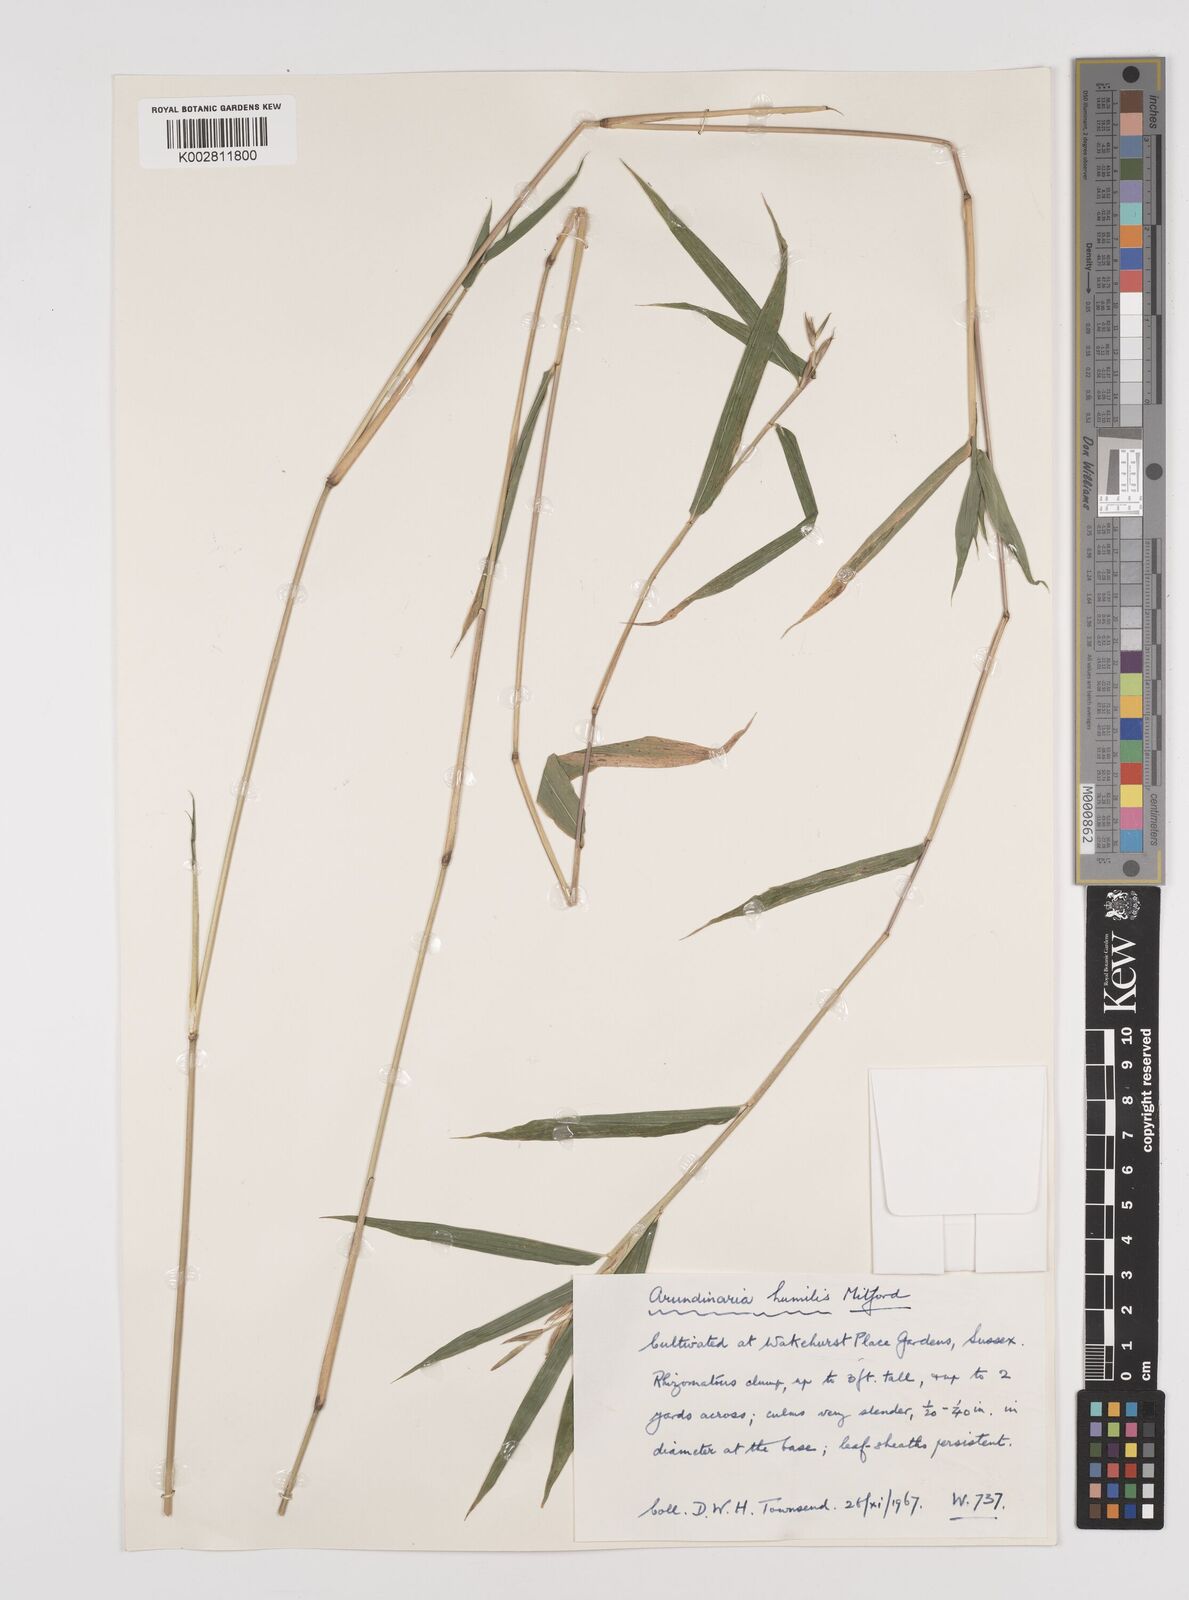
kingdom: Plantae
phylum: Tracheophyta
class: Liliopsida
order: Poales
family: Poaceae
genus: Pseudosasa
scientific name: Pseudosasa humilis
